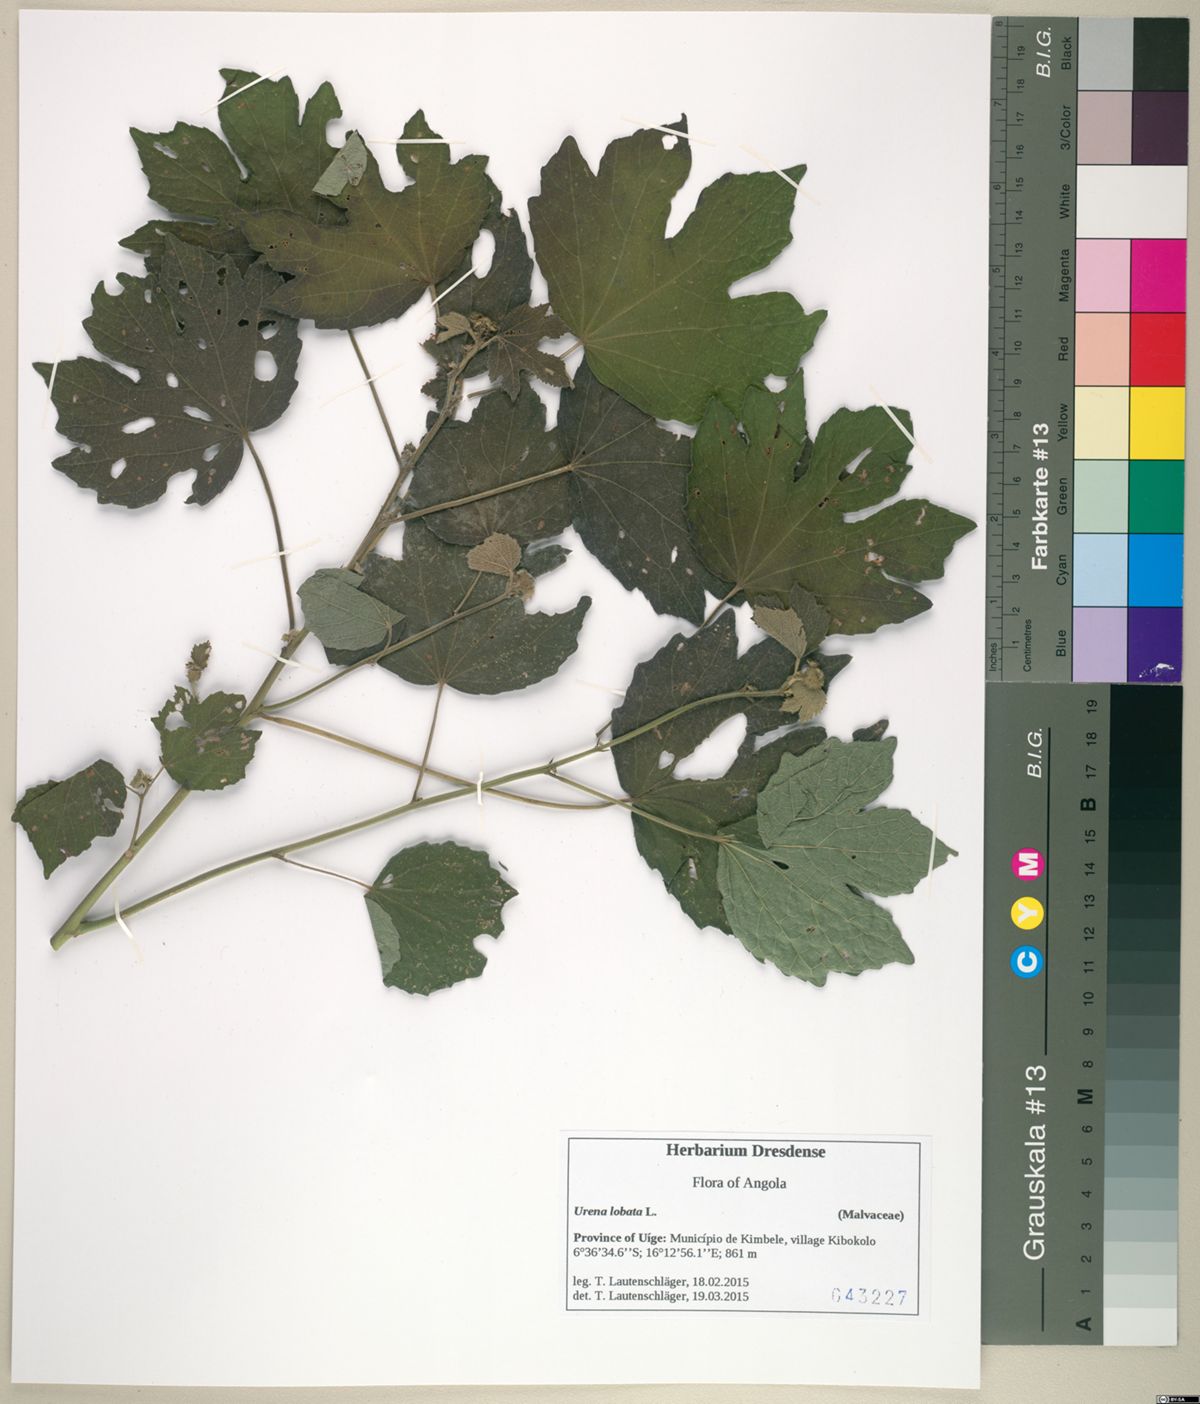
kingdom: Plantae
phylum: Tracheophyta
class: Magnoliopsida
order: Malvales
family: Malvaceae
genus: Urena
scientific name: Urena lobata
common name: Caesarweed
